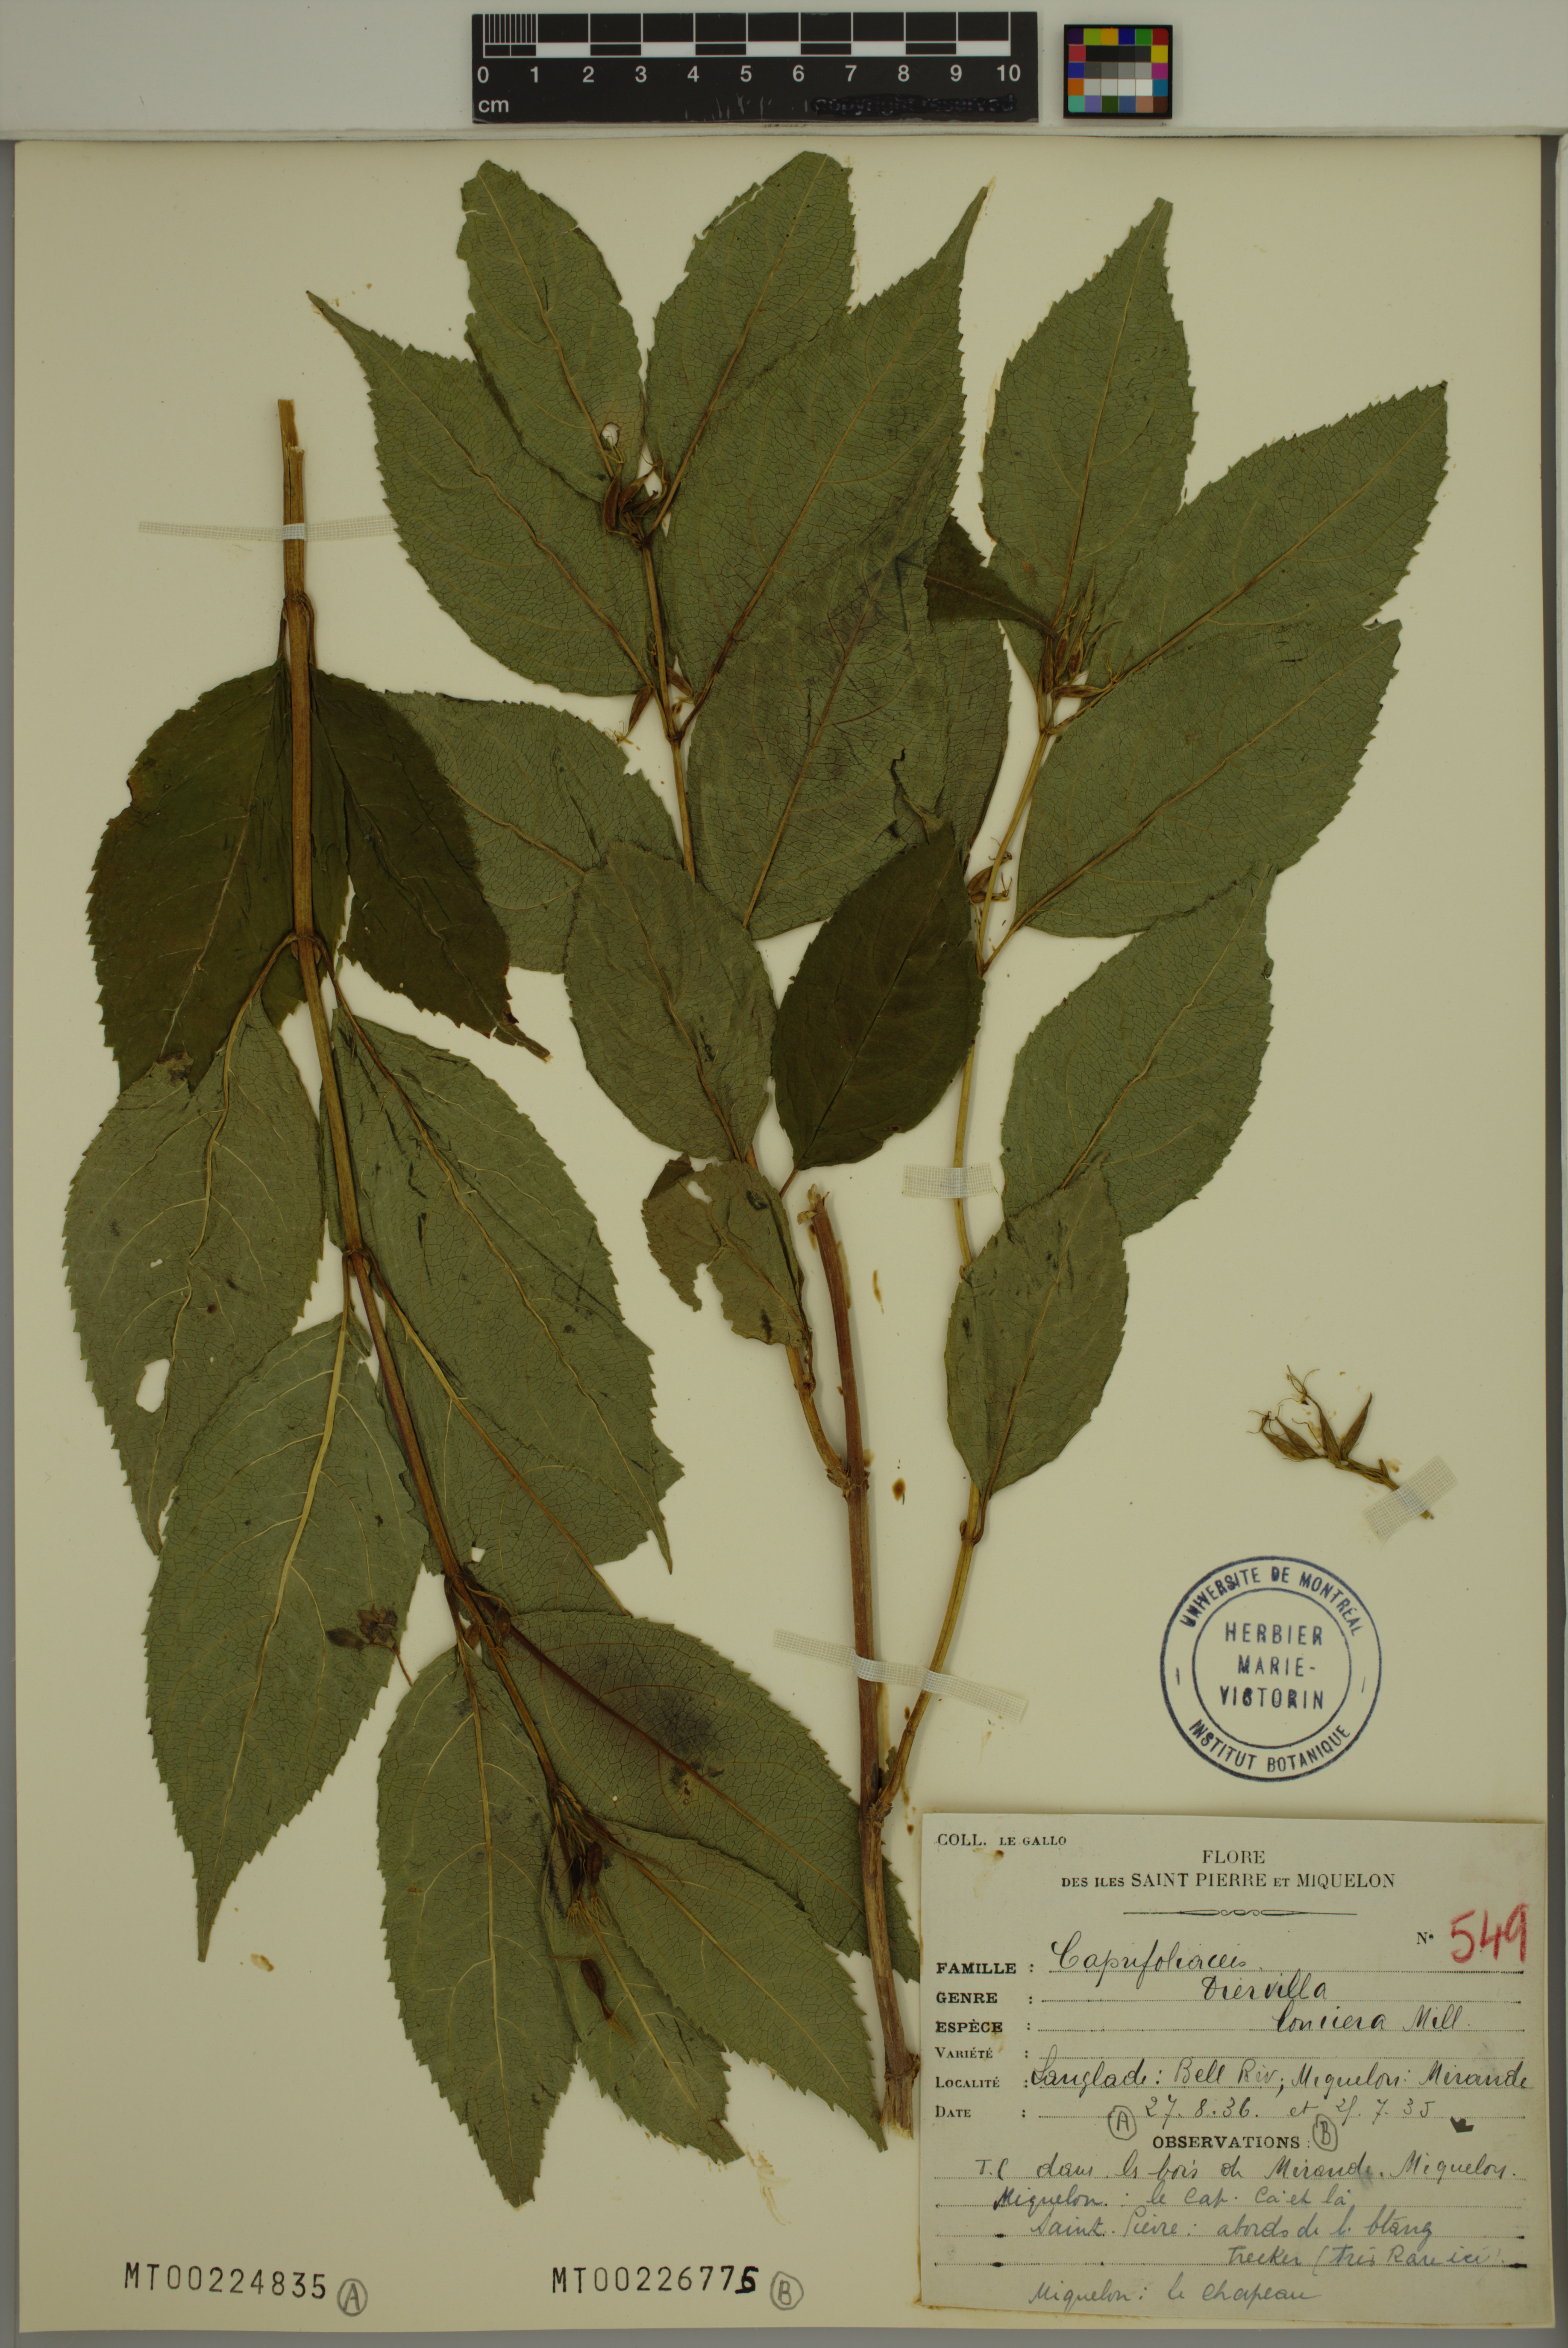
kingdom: Plantae
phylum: Tracheophyta
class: Magnoliopsida
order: Dipsacales
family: Caprifoliaceae
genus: Diervilla
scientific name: Diervilla lonicera
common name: Bush-honeysuckle
